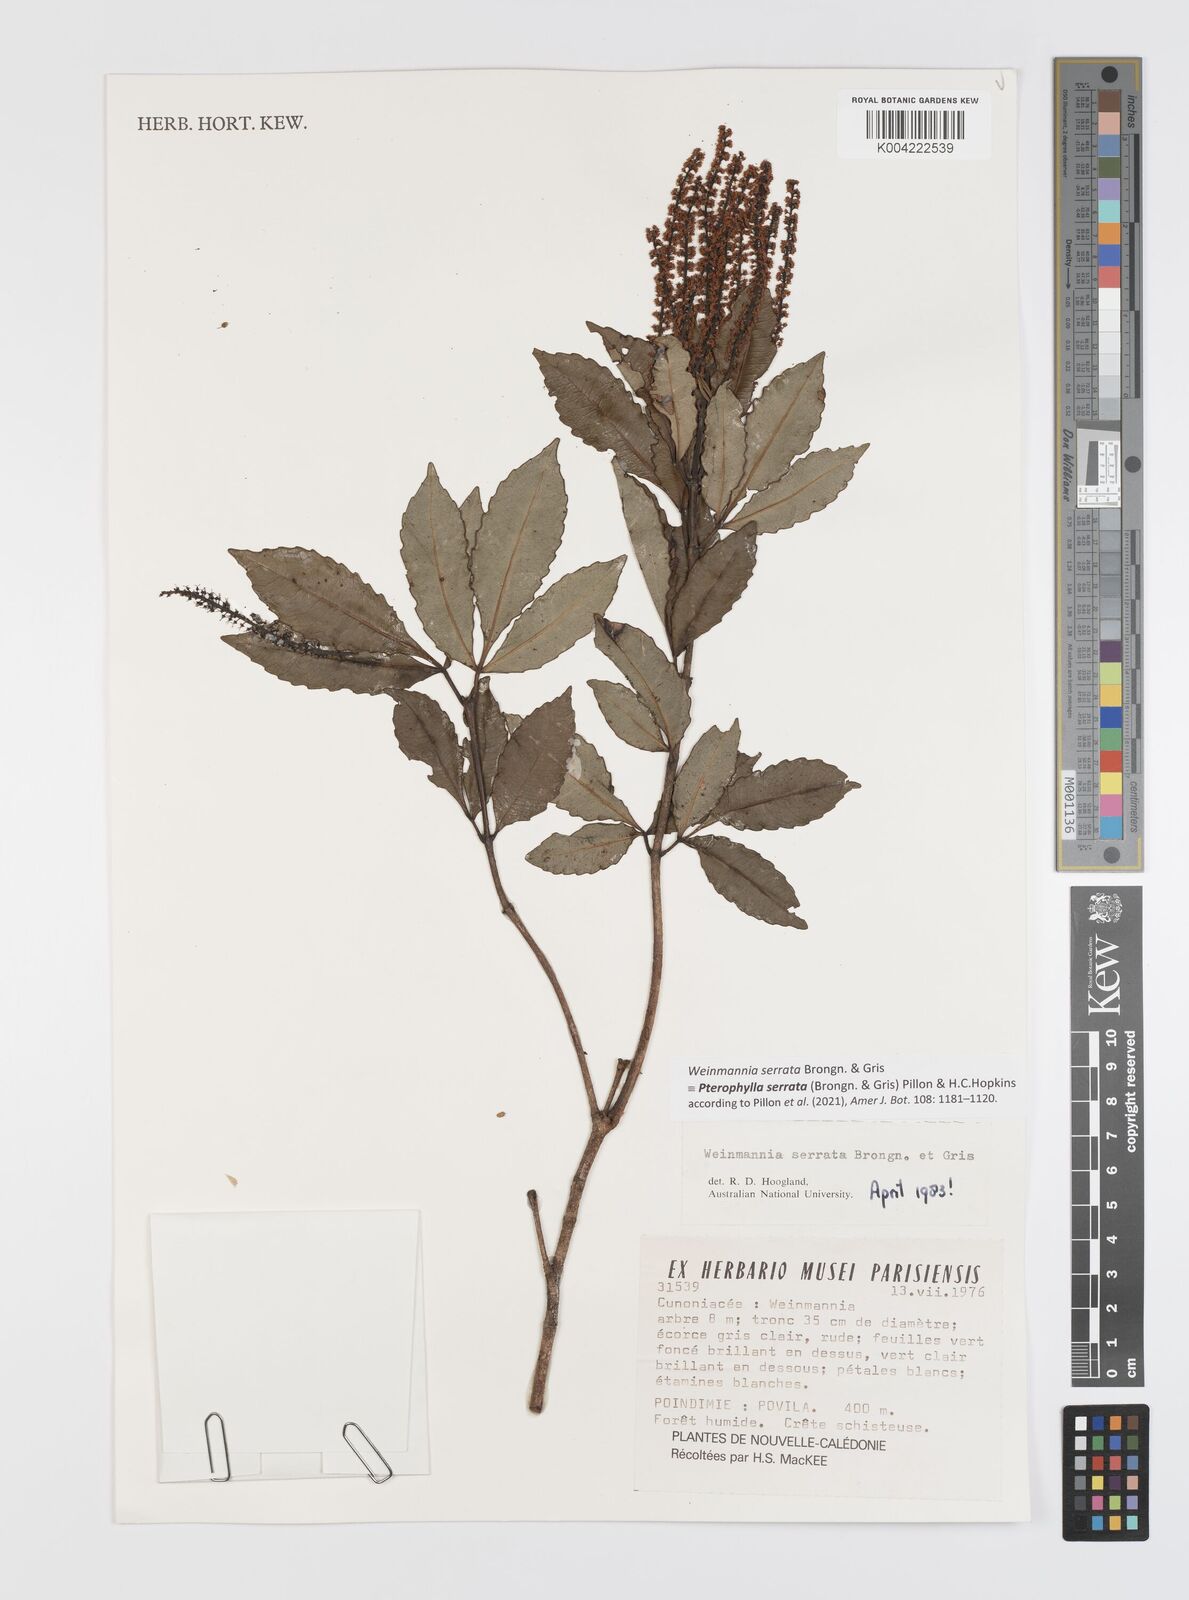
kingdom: Plantae
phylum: Tracheophyta
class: Magnoliopsida
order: Oxalidales
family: Cunoniaceae
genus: Pterophylla
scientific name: Pterophylla serrata
